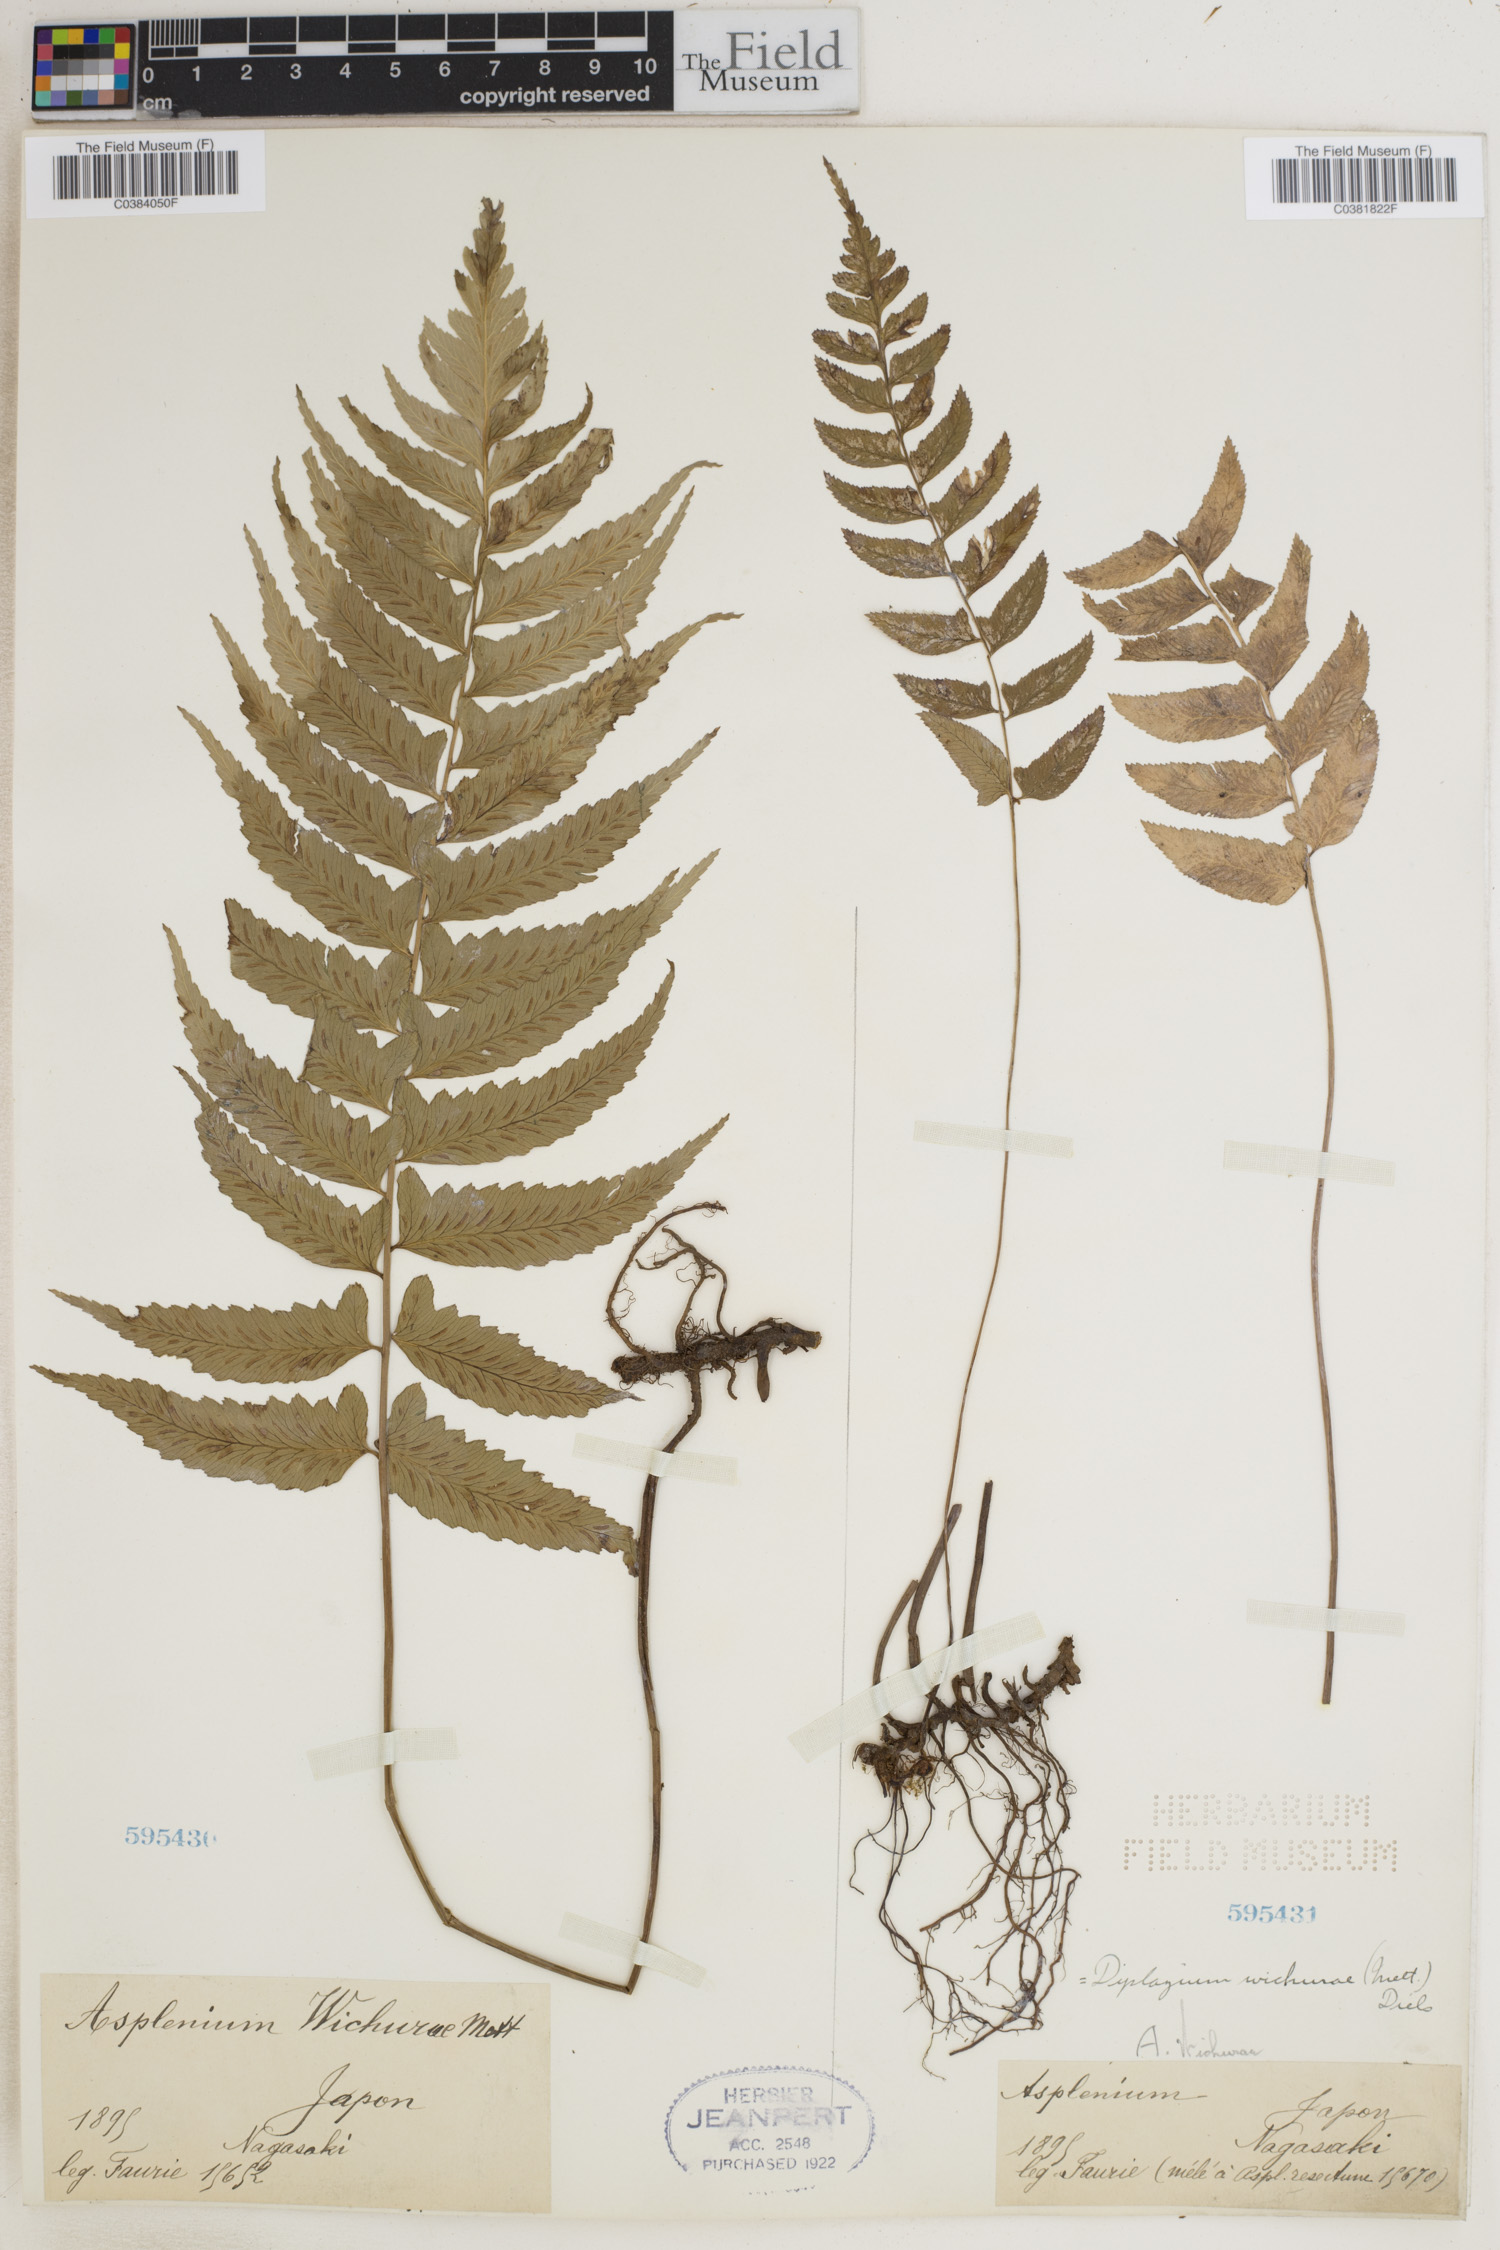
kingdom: Plantae
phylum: Tracheophyta
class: Polypodiopsida
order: Polypodiales
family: Athyriaceae
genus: Diplazium
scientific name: Diplazium wichurae
